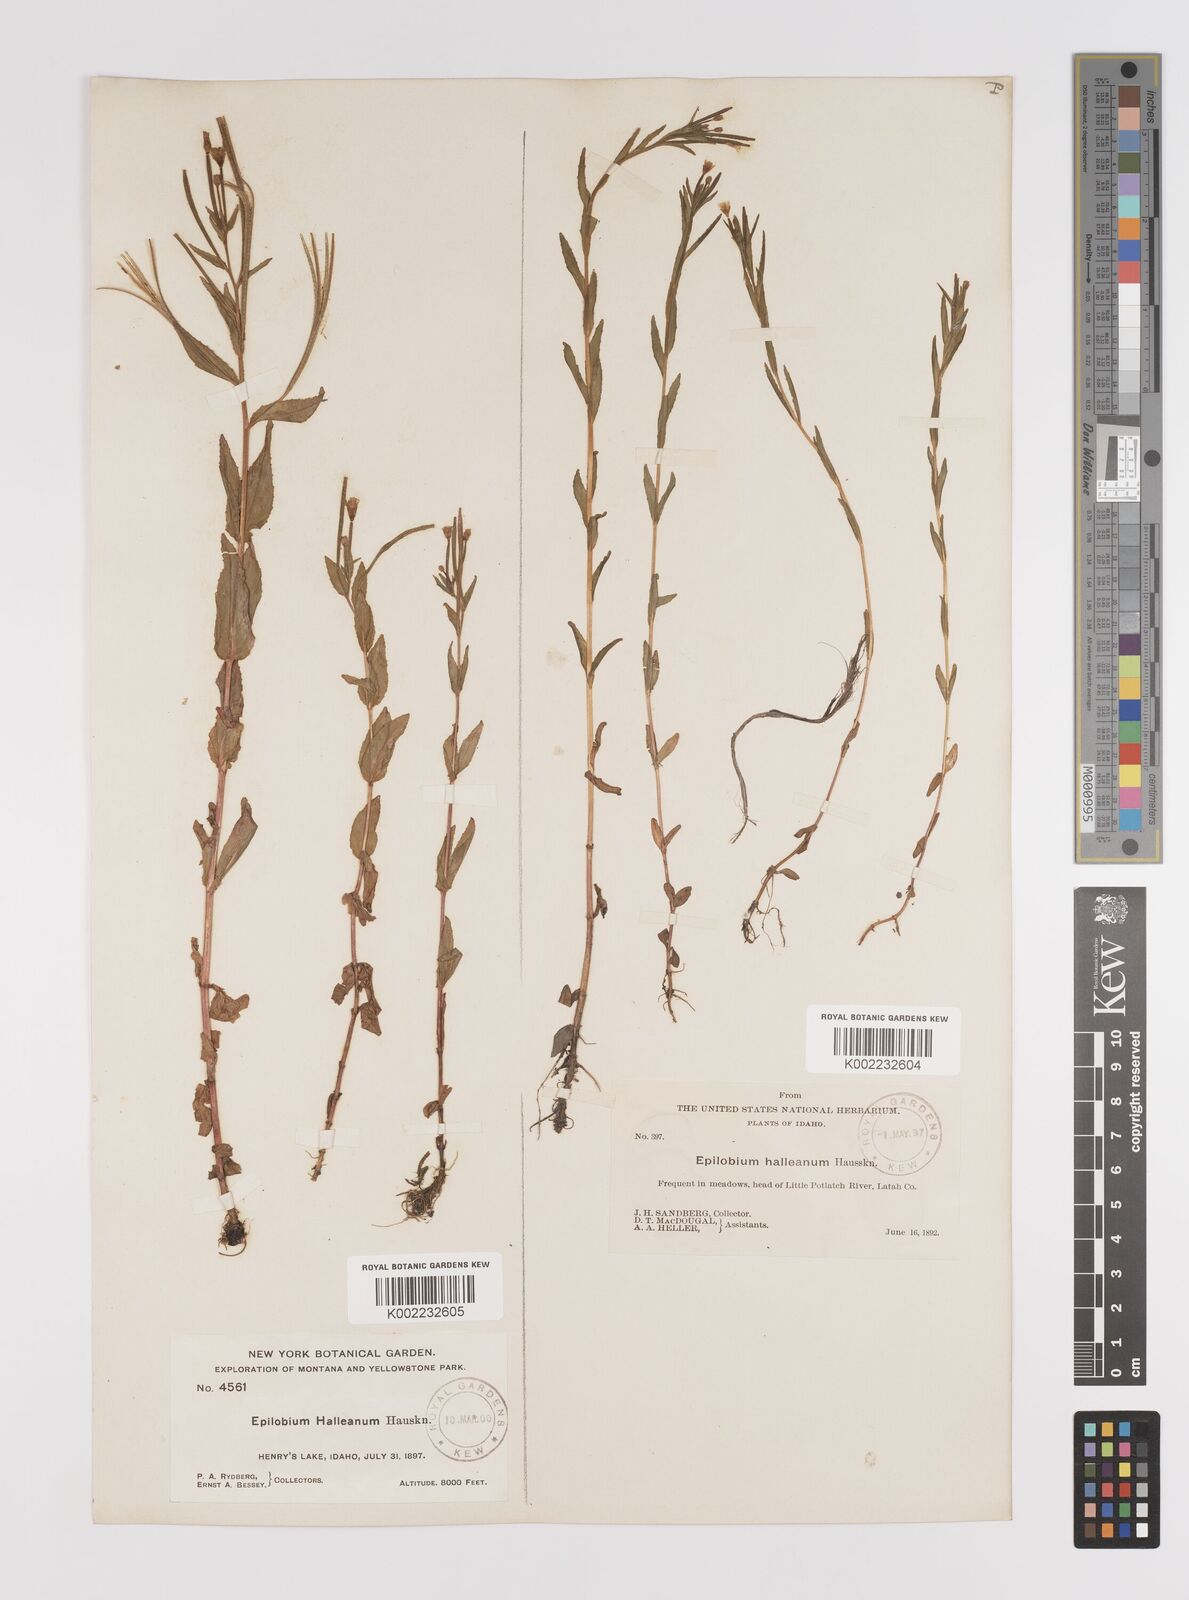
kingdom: Plantae
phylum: Tracheophyta
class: Magnoliopsida
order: Myrtales
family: Onagraceae
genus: Epilobium
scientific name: Epilobium hallianum
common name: Hall's willowherb
